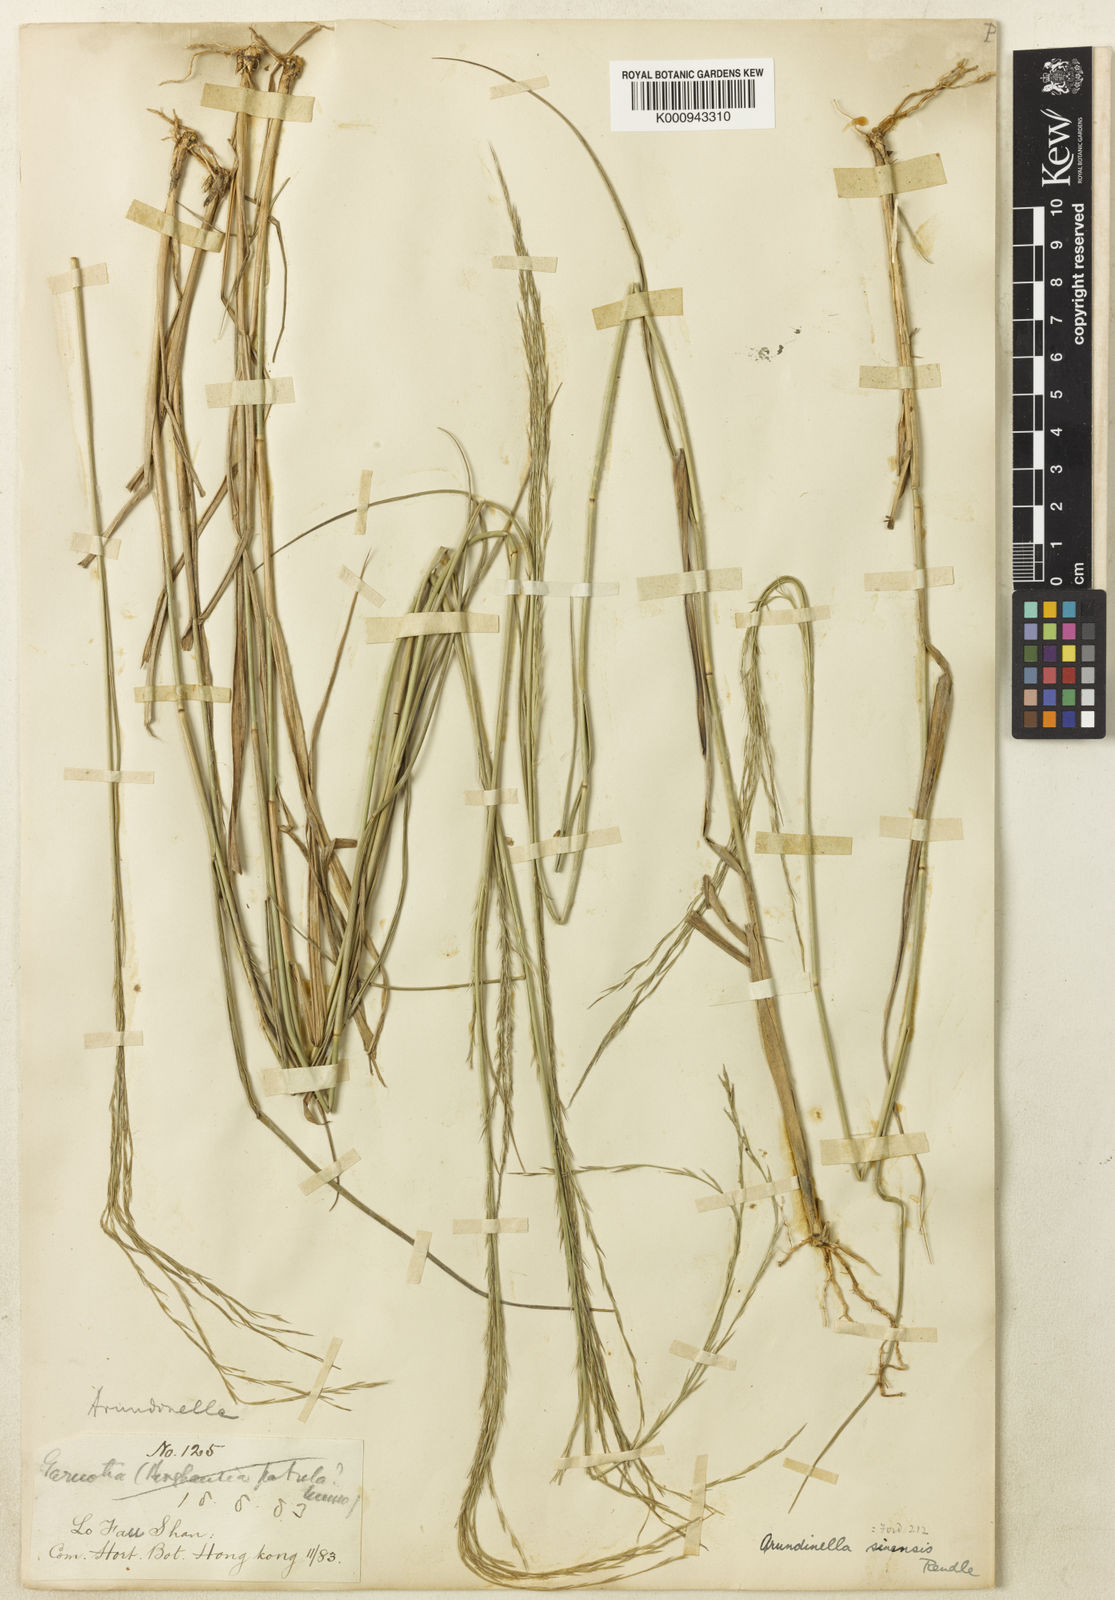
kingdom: Plantae
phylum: Tracheophyta
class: Liliopsida
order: Poales
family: Poaceae
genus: Arundinella
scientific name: Arundinella setosa
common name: Reed grass
